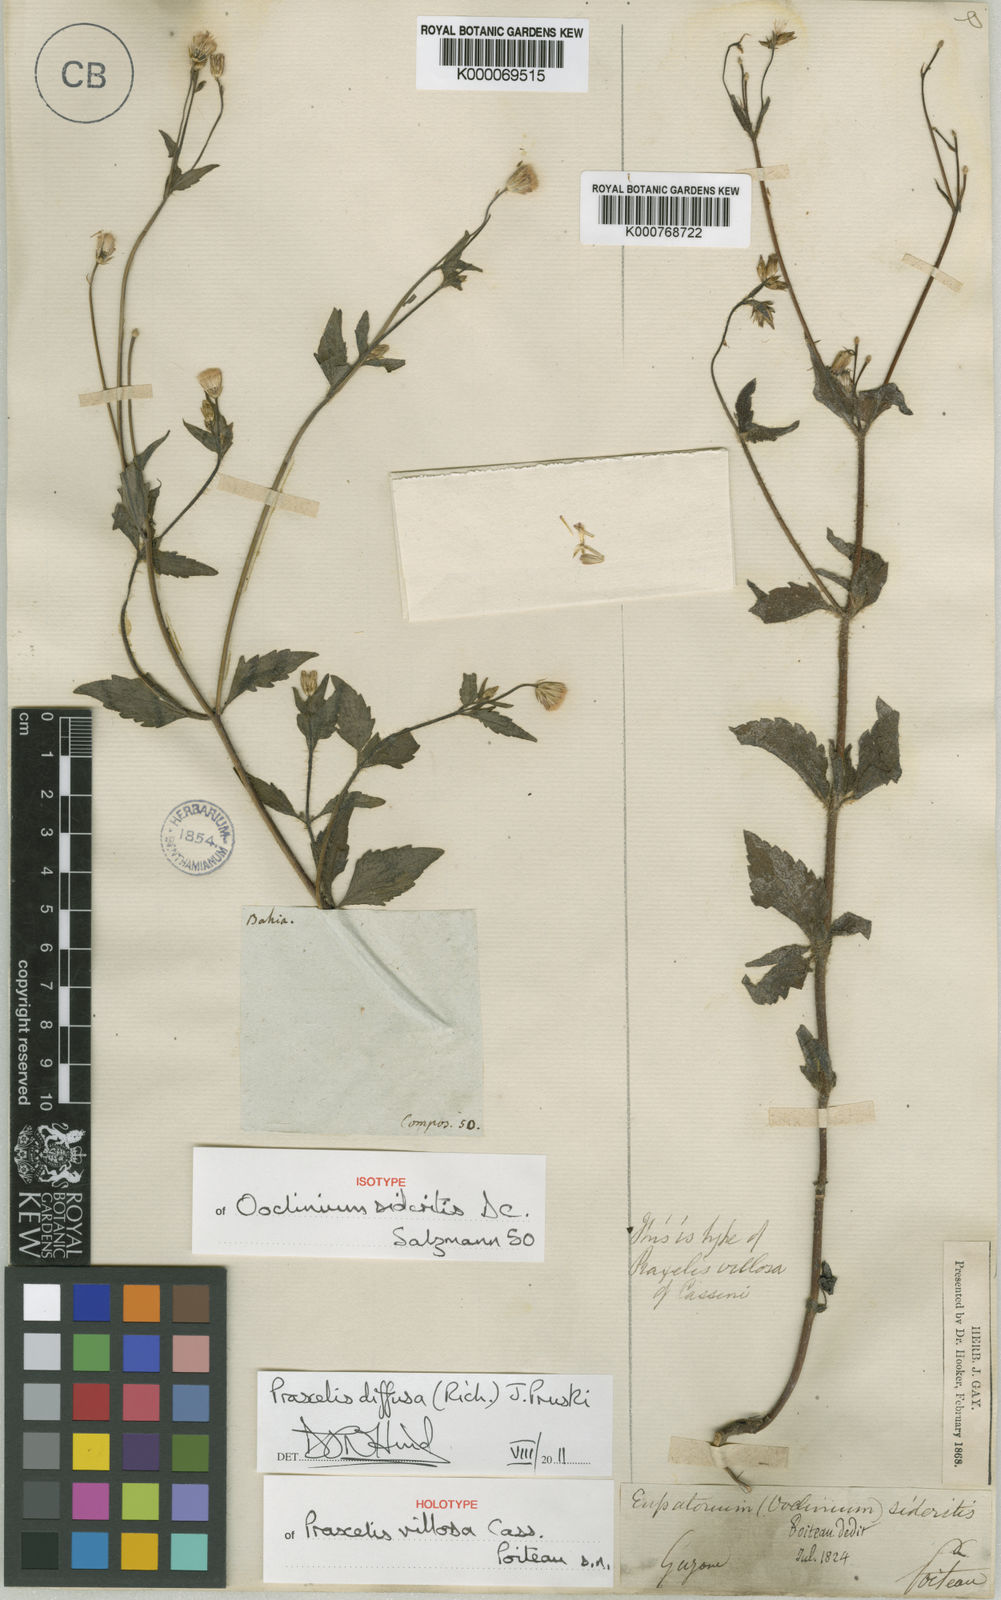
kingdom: Plantae
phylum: Tracheophyta
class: Magnoliopsida
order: Asterales
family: Asteraceae
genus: Praxelis
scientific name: Praxelis diffusa
